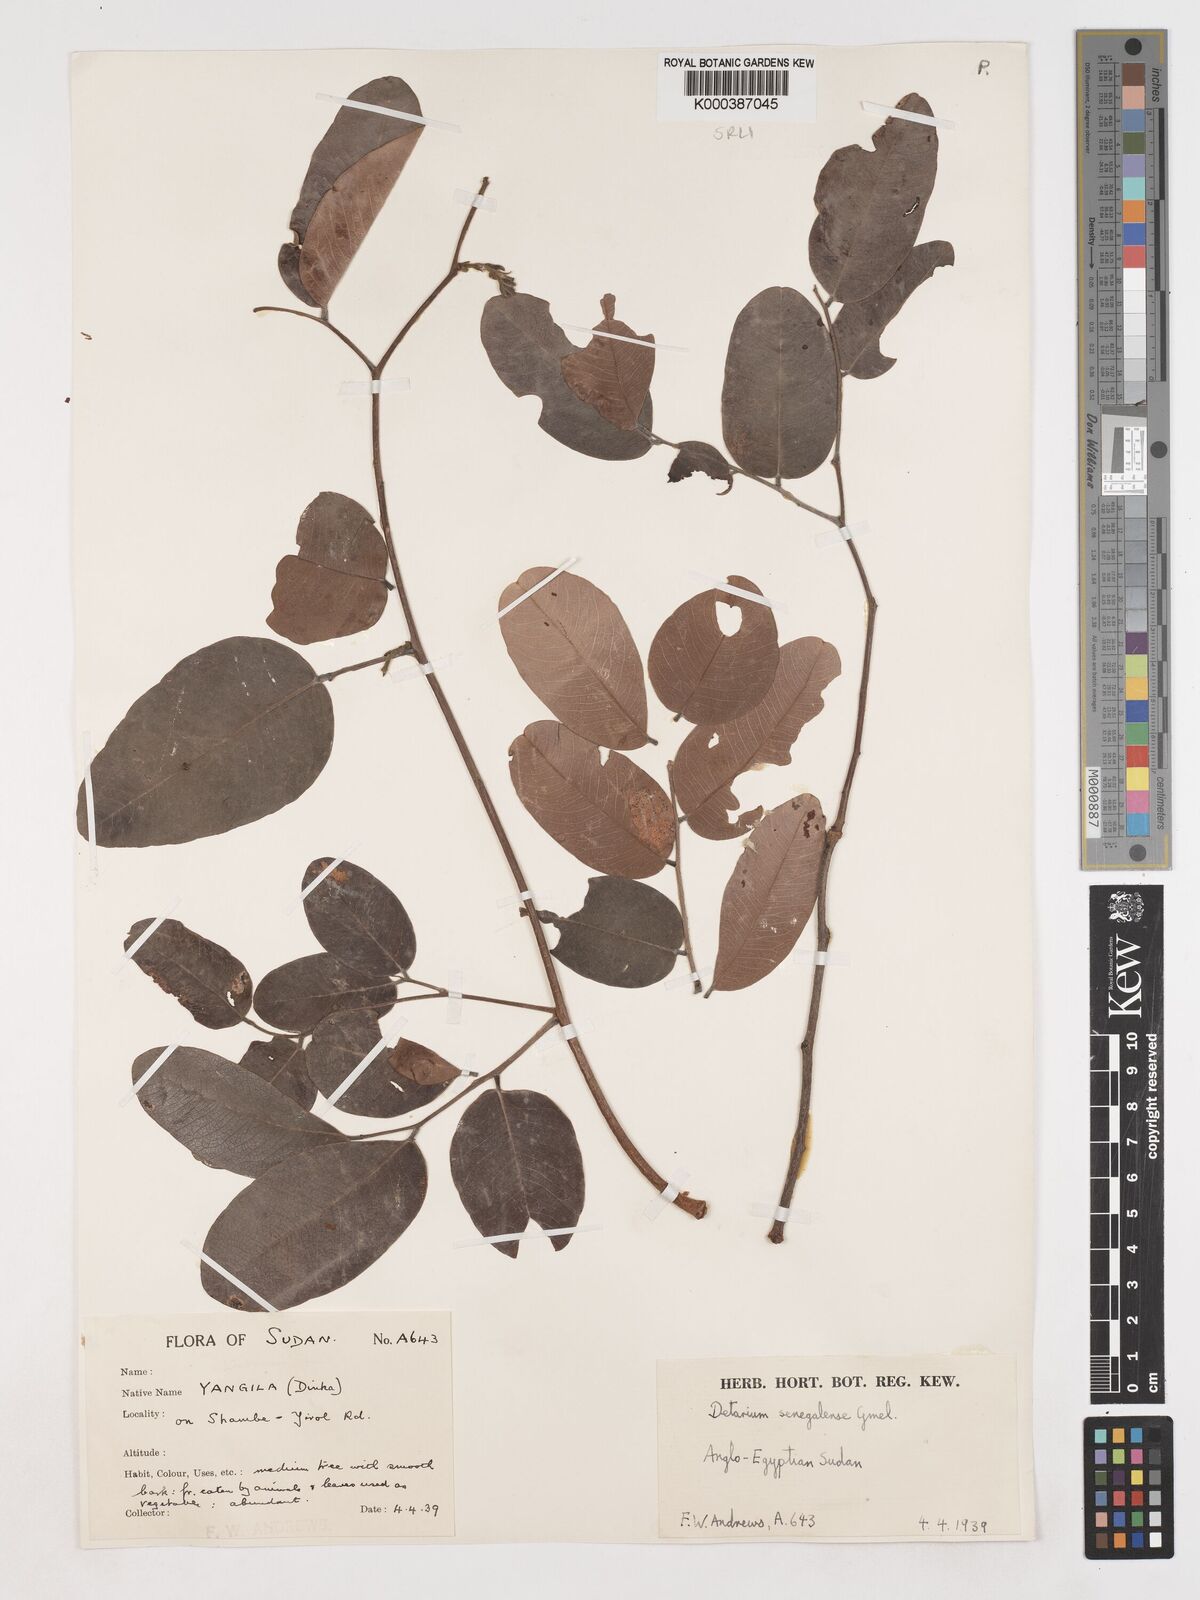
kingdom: Plantae
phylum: Tracheophyta
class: Magnoliopsida
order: Fabales
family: Fabaceae
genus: Detarium
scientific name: Detarium microcarpum
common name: Sweet dattock
